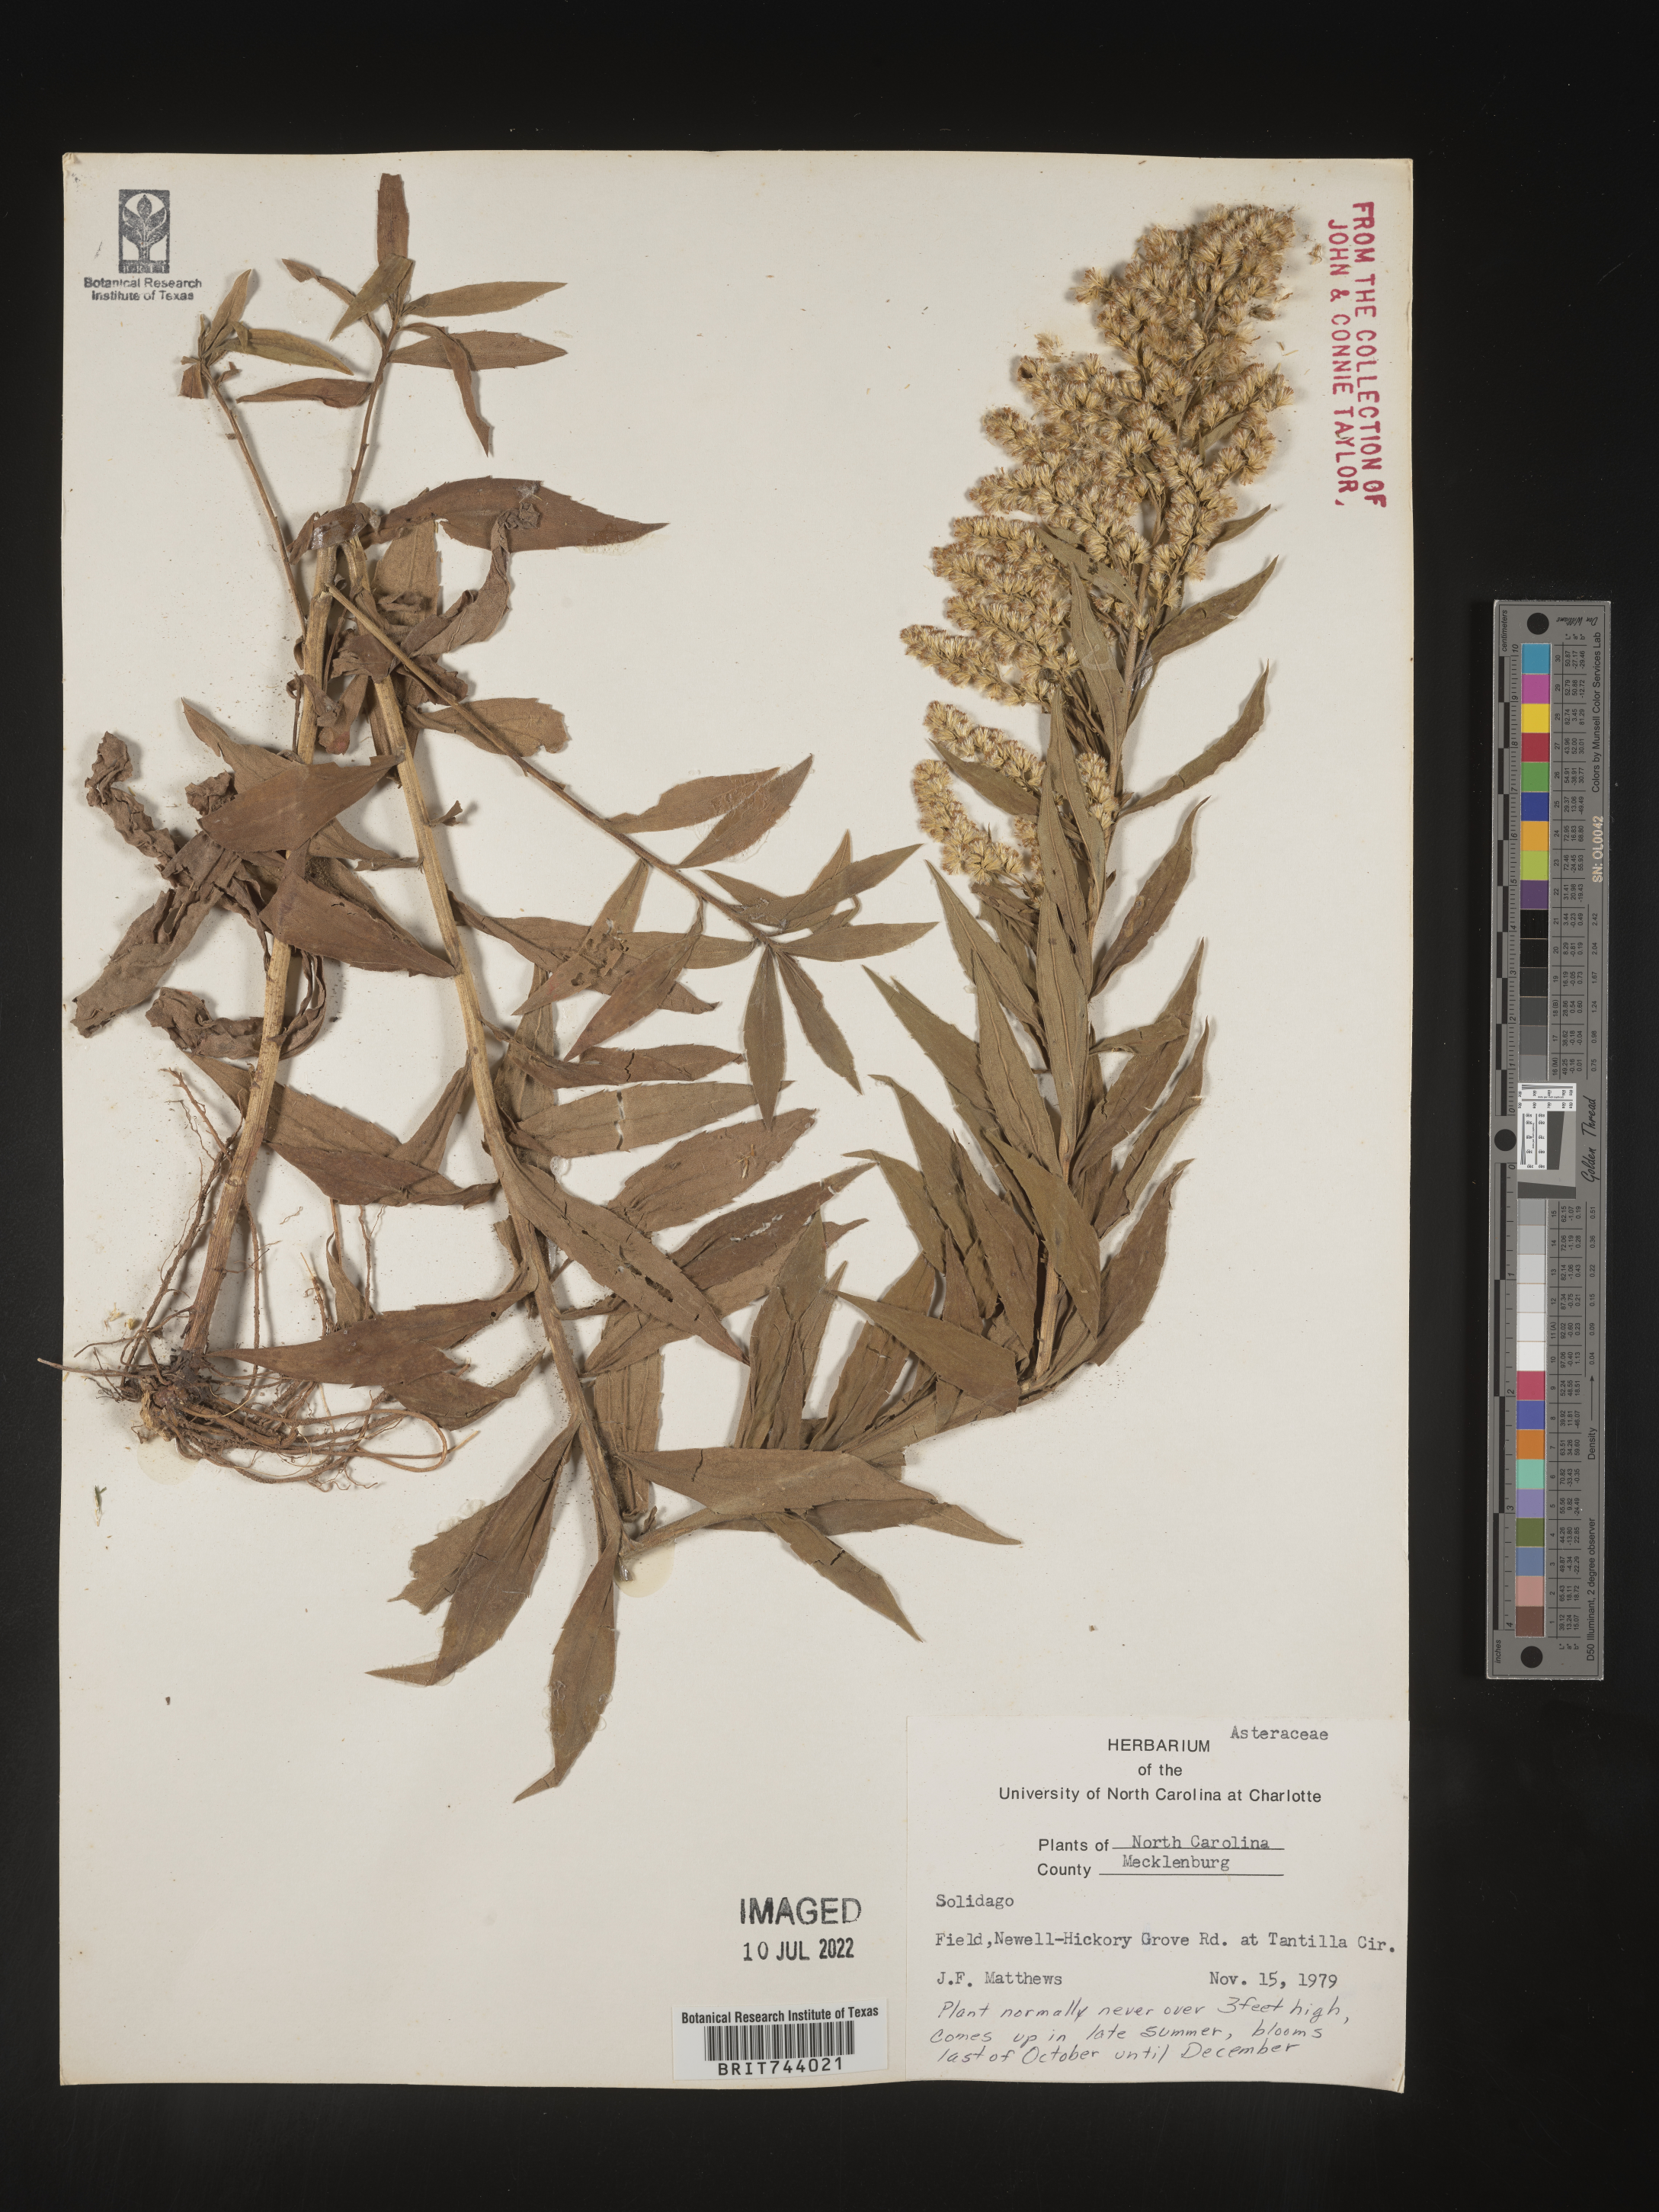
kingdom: Plantae
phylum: Tracheophyta
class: Magnoliopsida
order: Asterales
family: Asteraceae
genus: Solidago
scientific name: Solidago altissima
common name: Late goldenrod
